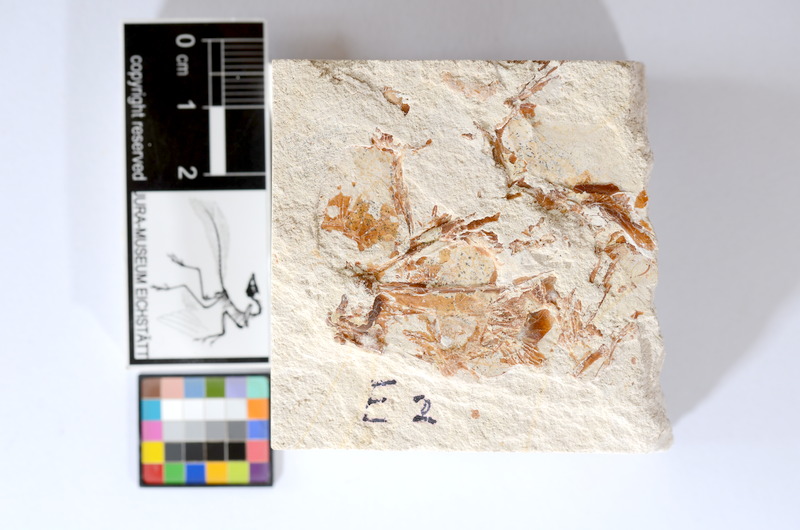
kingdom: Animalia
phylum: Chordata
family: Ascalaboidae
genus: Tharsis
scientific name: Tharsis dubius
